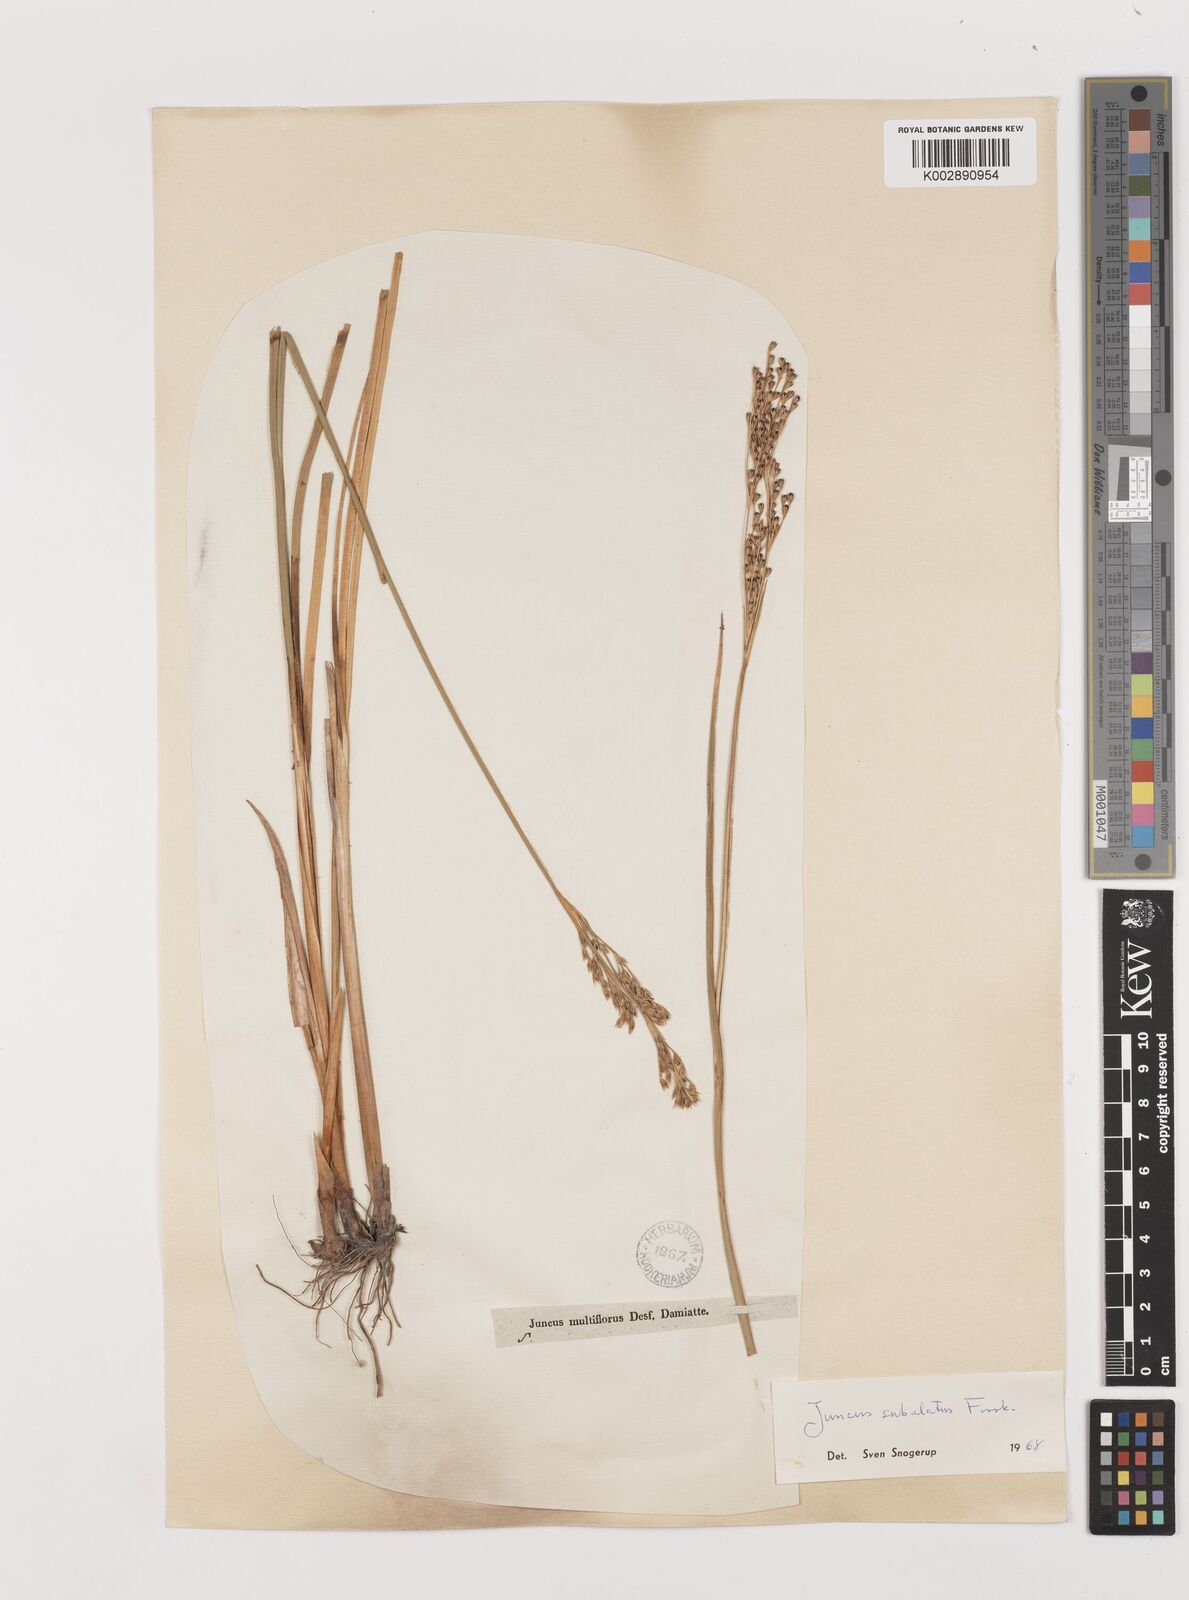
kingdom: Plantae
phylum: Tracheophyta
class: Liliopsida
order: Poales
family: Juncaceae
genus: Juncus
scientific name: Juncus subulatus
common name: Somerset rush
